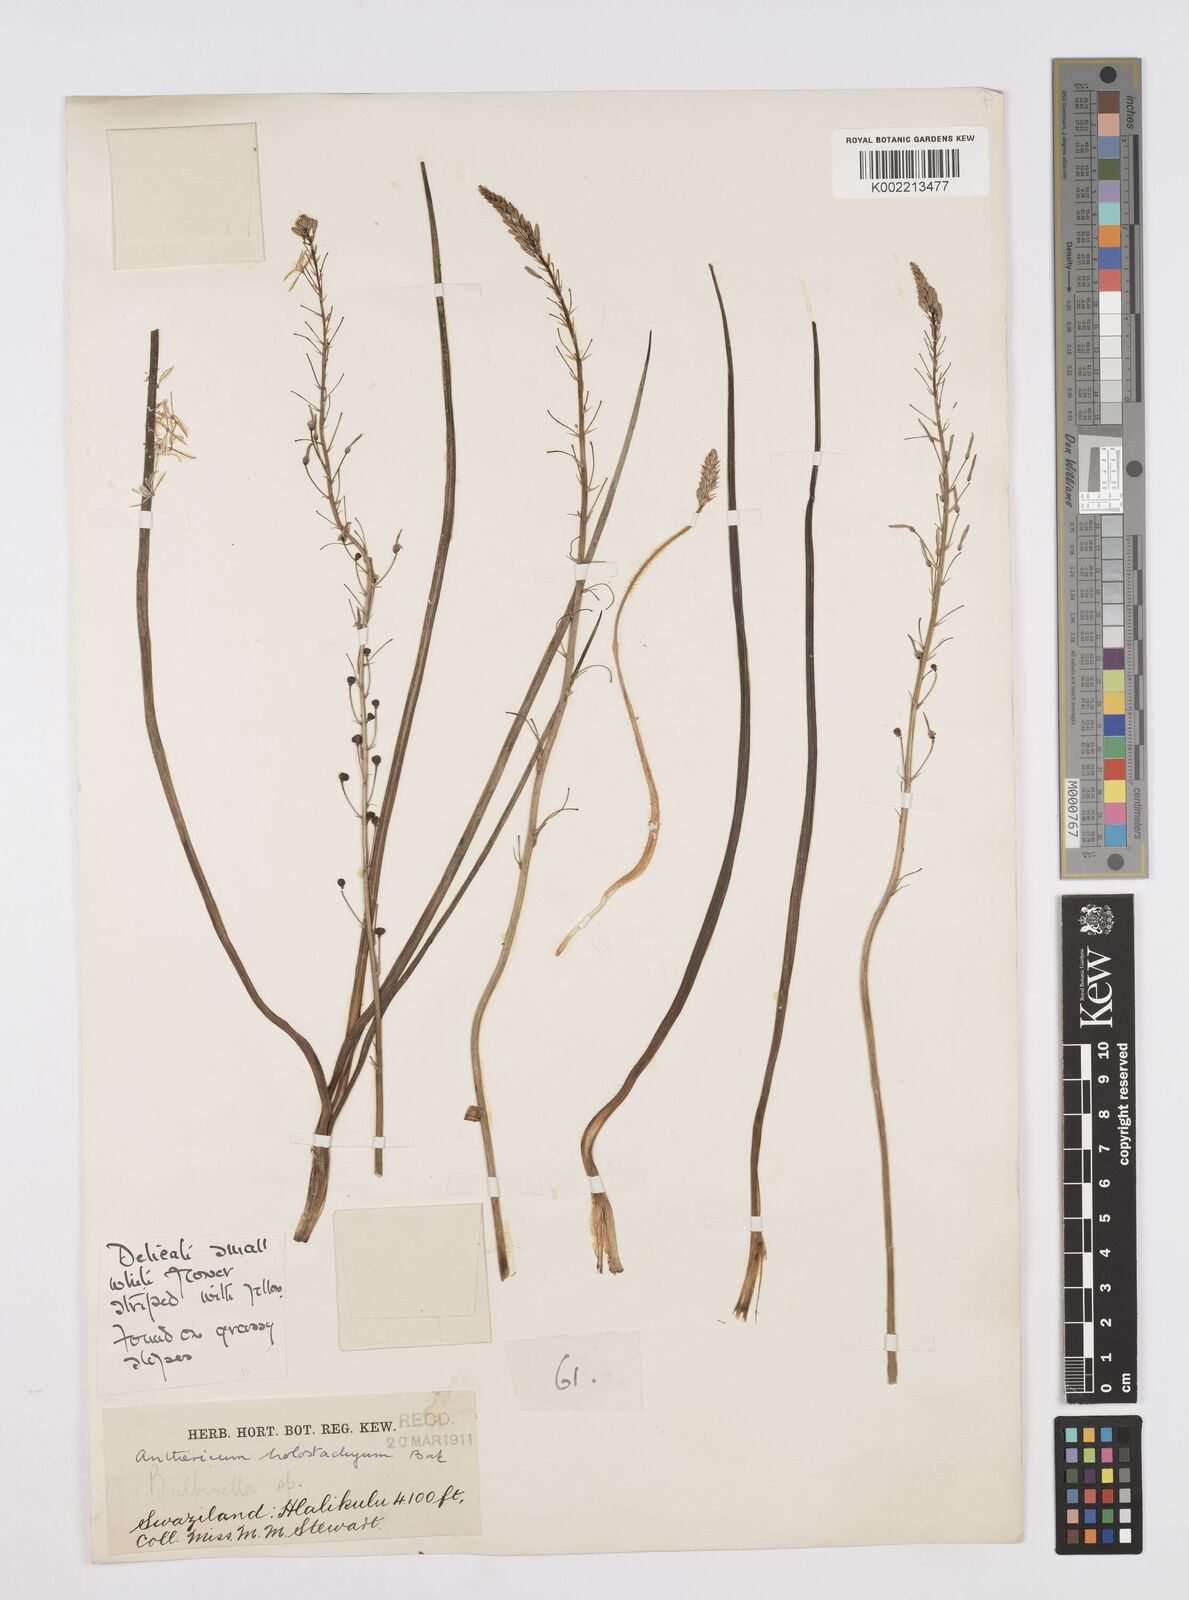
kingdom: Plantae
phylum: Tracheophyta
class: Liliopsida
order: Asparagales
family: Asphodelaceae
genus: Trachyandra
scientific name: Trachyandra saltii
